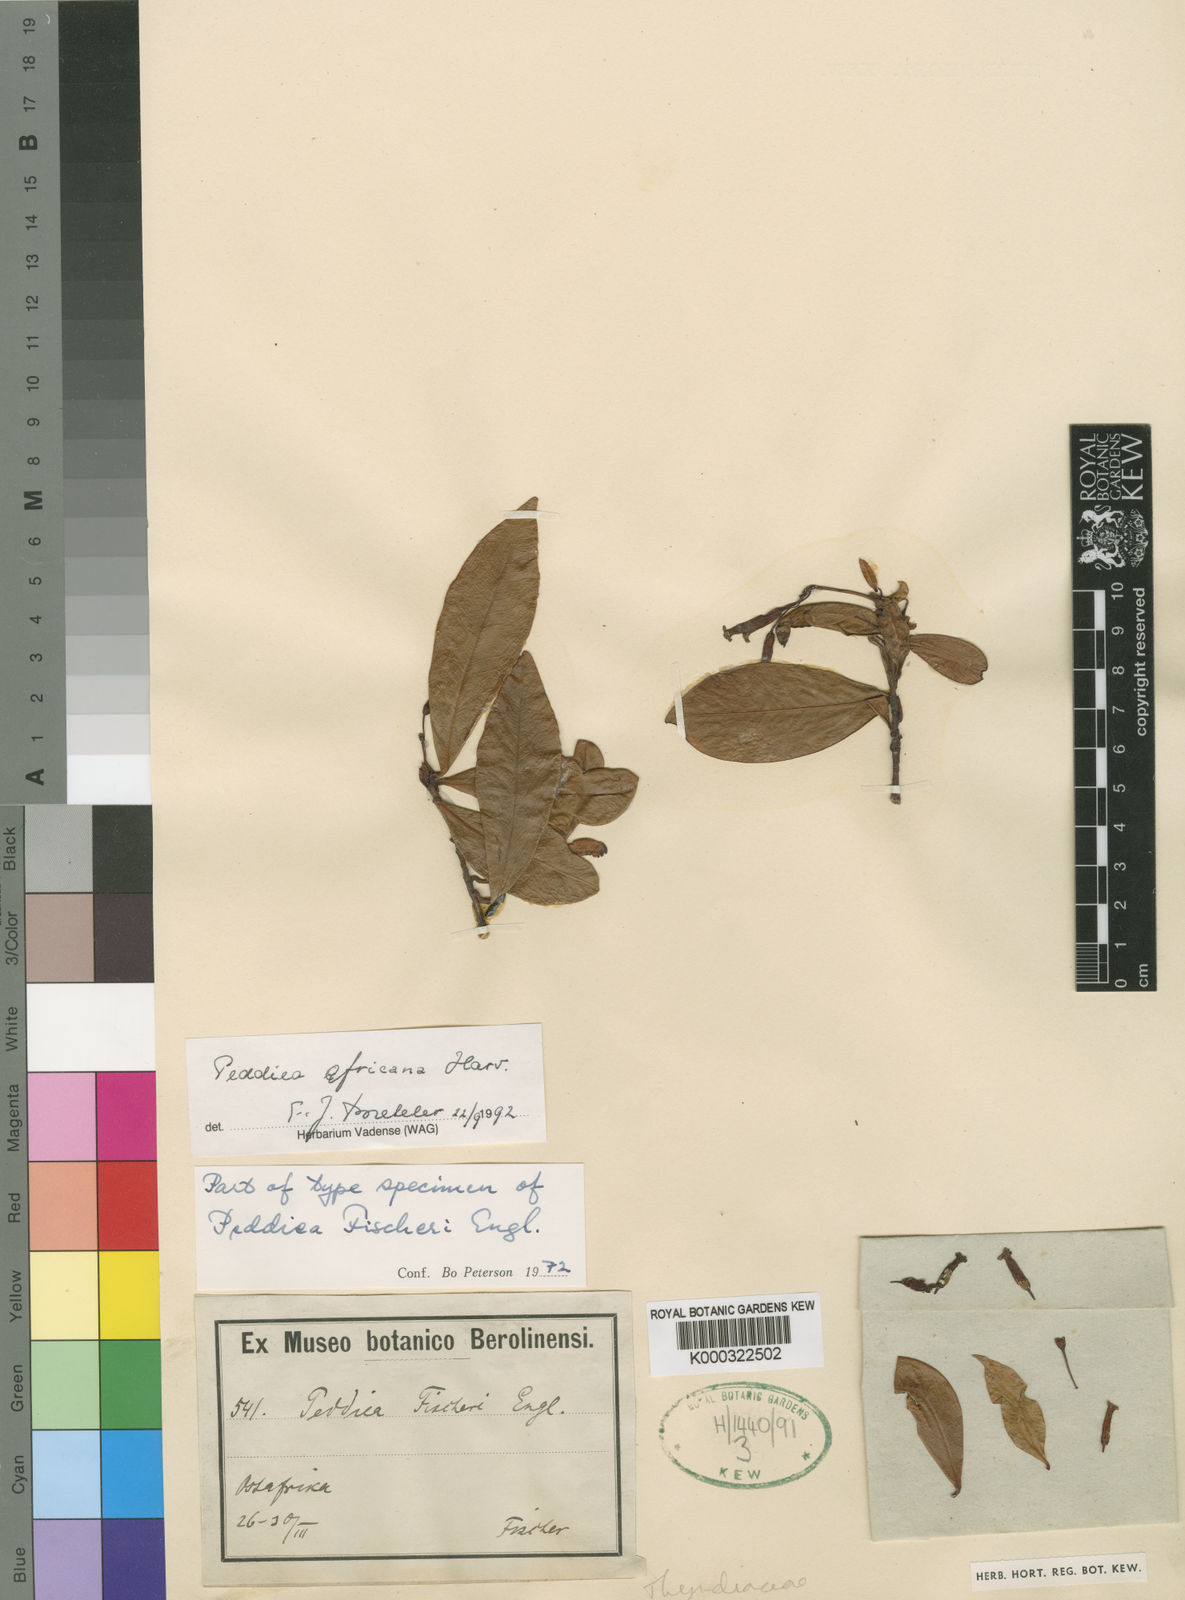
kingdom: Plantae
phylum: Tracheophyta
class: Magnoliopsida
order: Malvales
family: Thymelaeaceae
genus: Peddiea
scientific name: Peddiea fischeri
